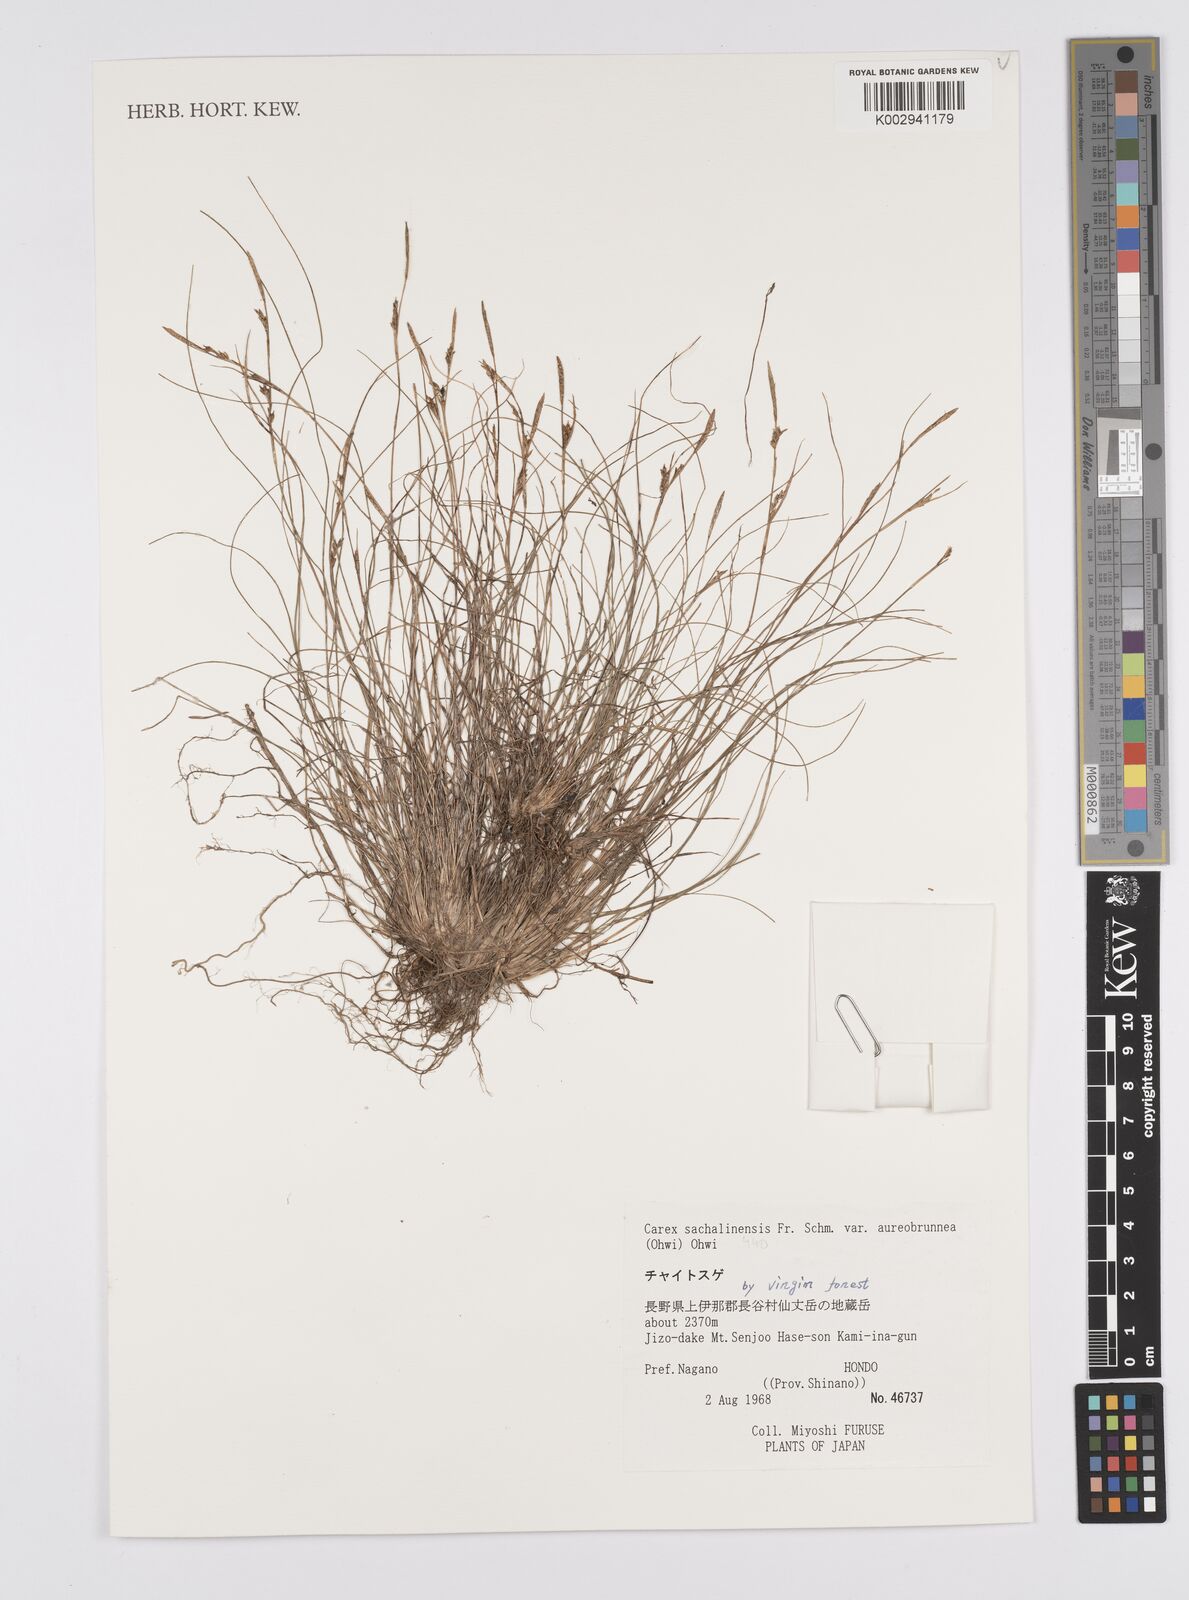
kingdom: Plantae
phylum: Tracheophyta
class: Liliopsida
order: Poales
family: Cyperaceae
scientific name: Cyperaceae
